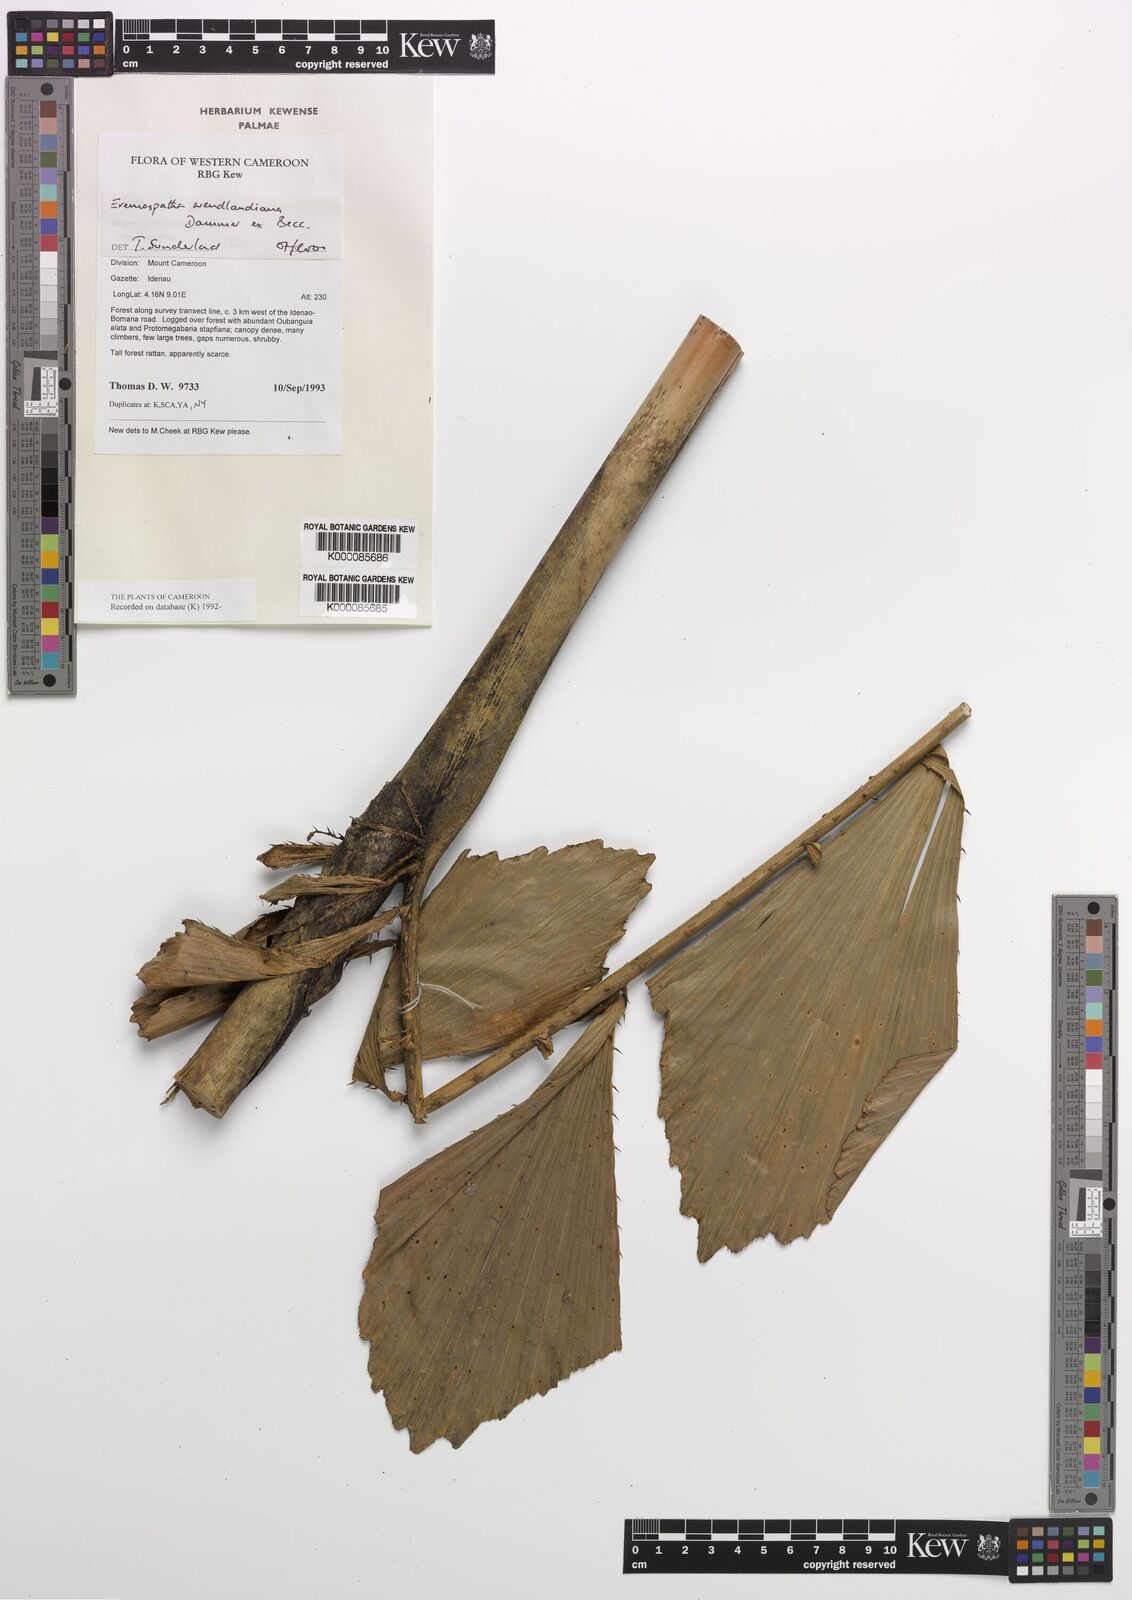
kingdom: Plantae
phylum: Tracheophyta
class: Liliopsida
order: Arecales
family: Arecaceae
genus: Eremospatha
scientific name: Eremospatha wendlandiana
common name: Rattan
